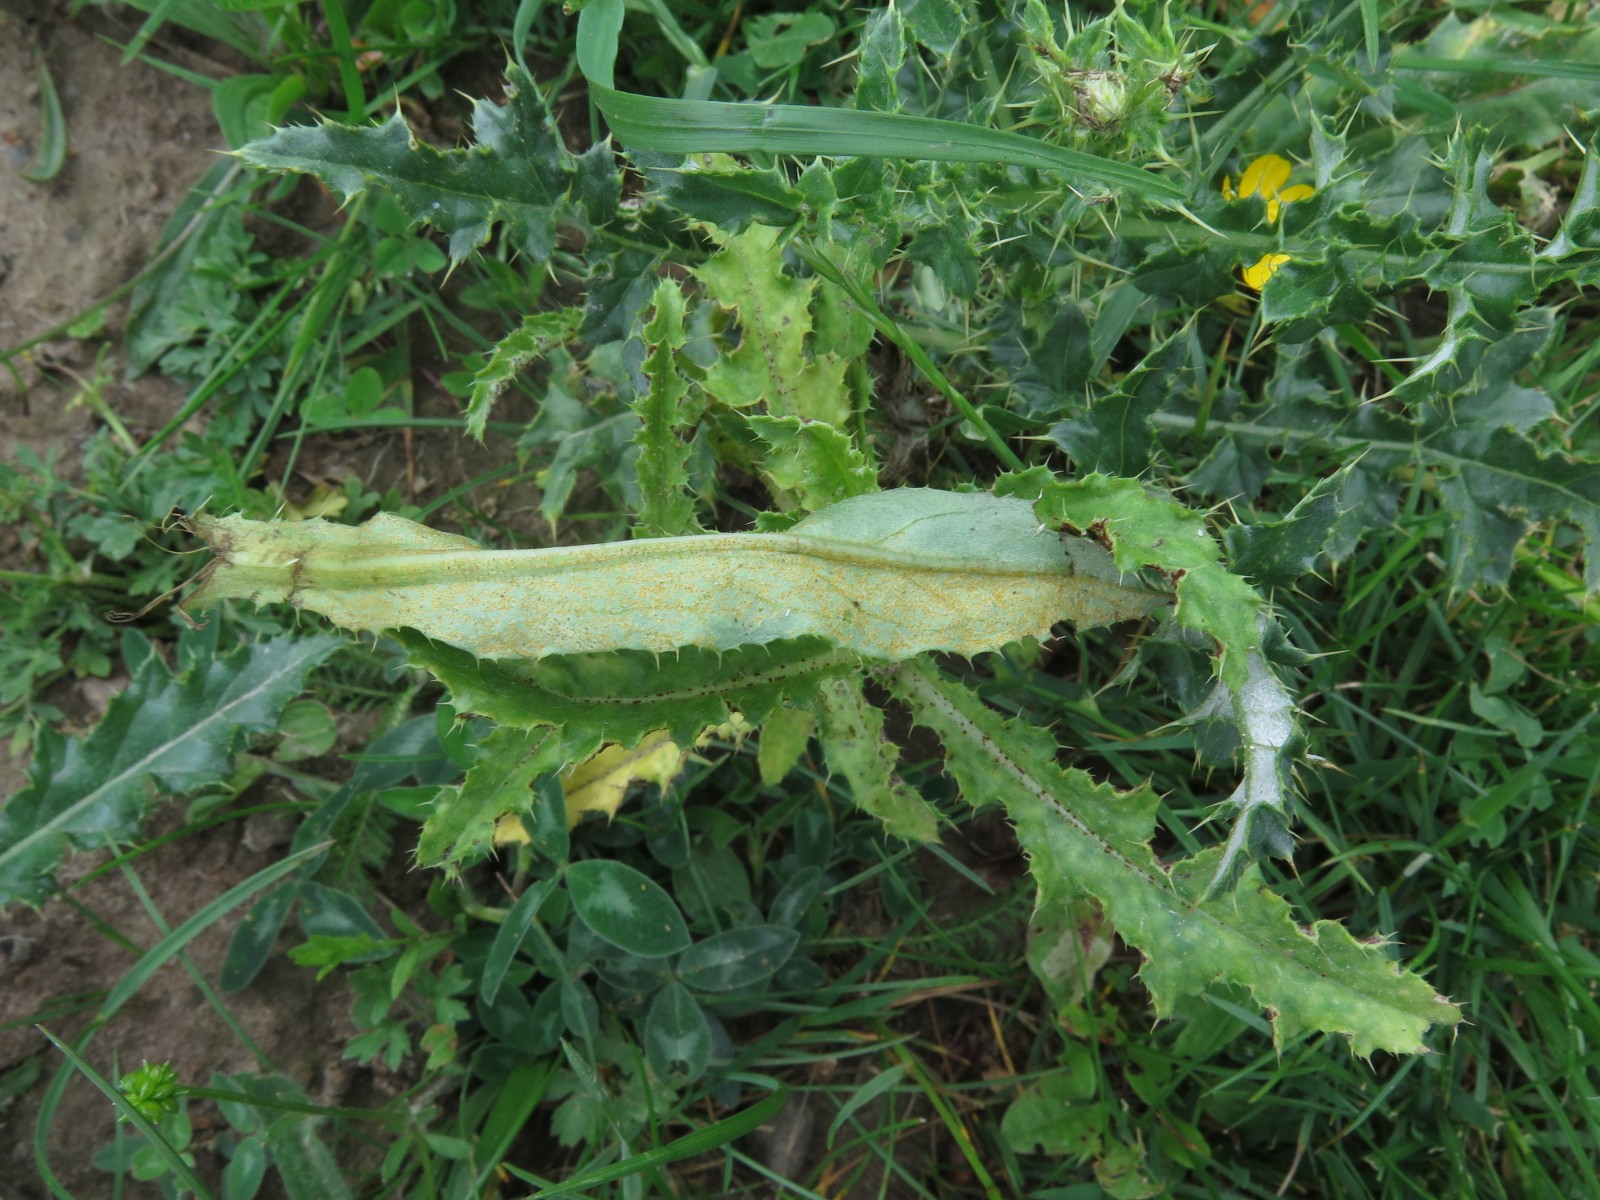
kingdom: Fungi
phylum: Basidiomycota
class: Pucciniomycetes
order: Pucciniales
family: Pucciniaceae
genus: Puccinia
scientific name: Puccinia suaveolens
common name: tidsel-tvecellerust
